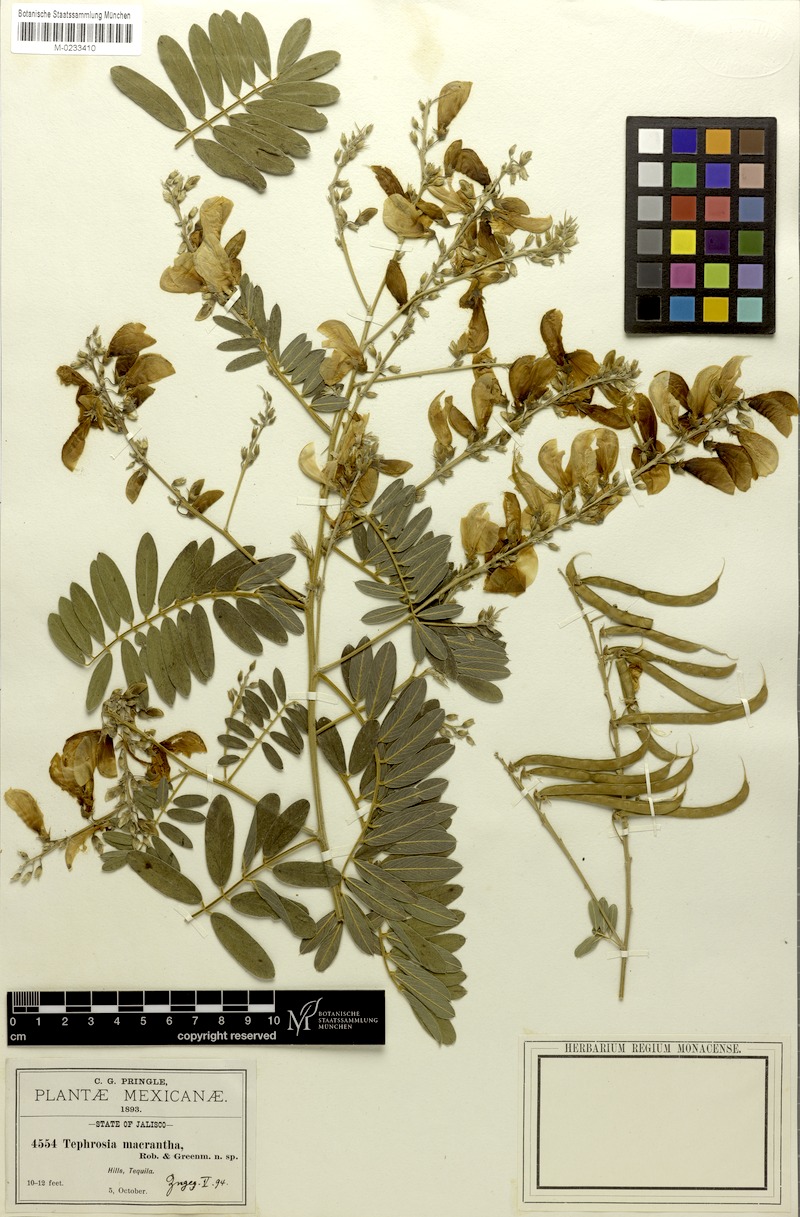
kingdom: Plantae
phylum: Tracheophyta
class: Magnoliopsida
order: Fabales
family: Fabaceae
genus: Tephrosia
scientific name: Tephrosia macrantha
